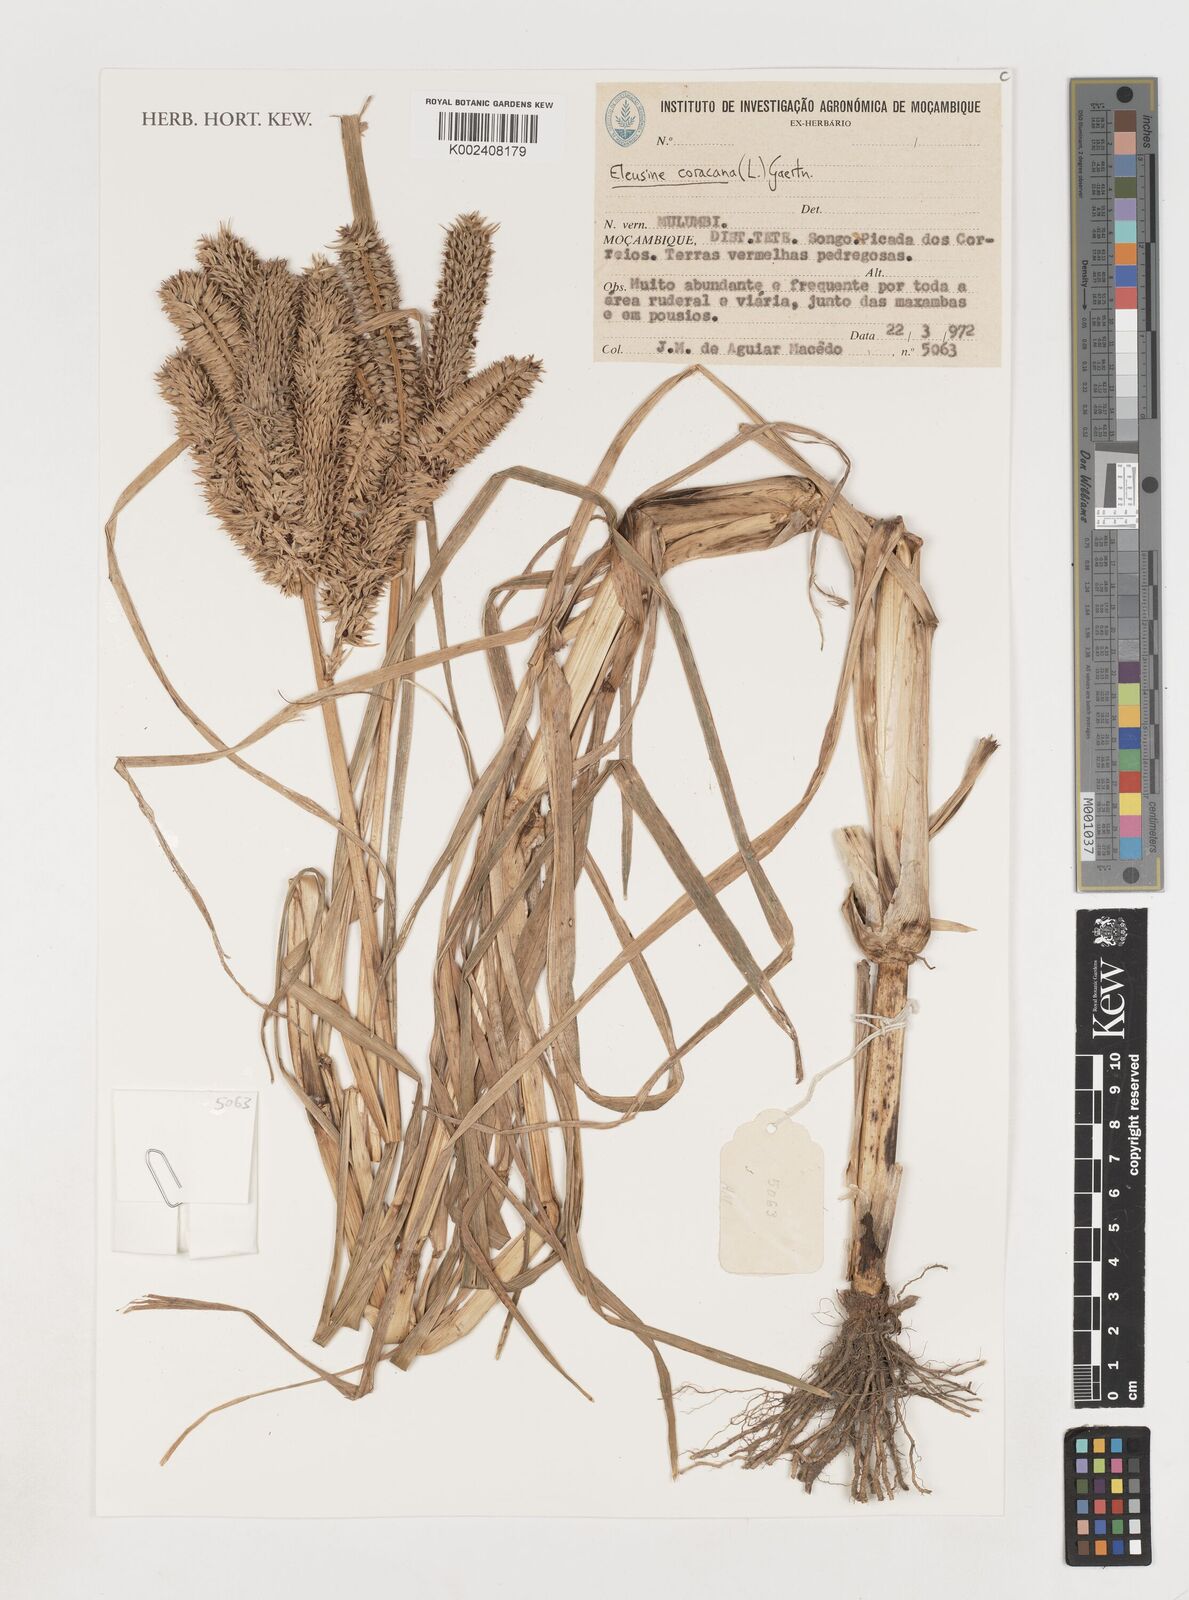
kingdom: Plantae
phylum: Tracheophyta
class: Liliopsida
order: Poales
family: Poaceae
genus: Eleusine
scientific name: Eleusine coracana
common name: Finger millet
